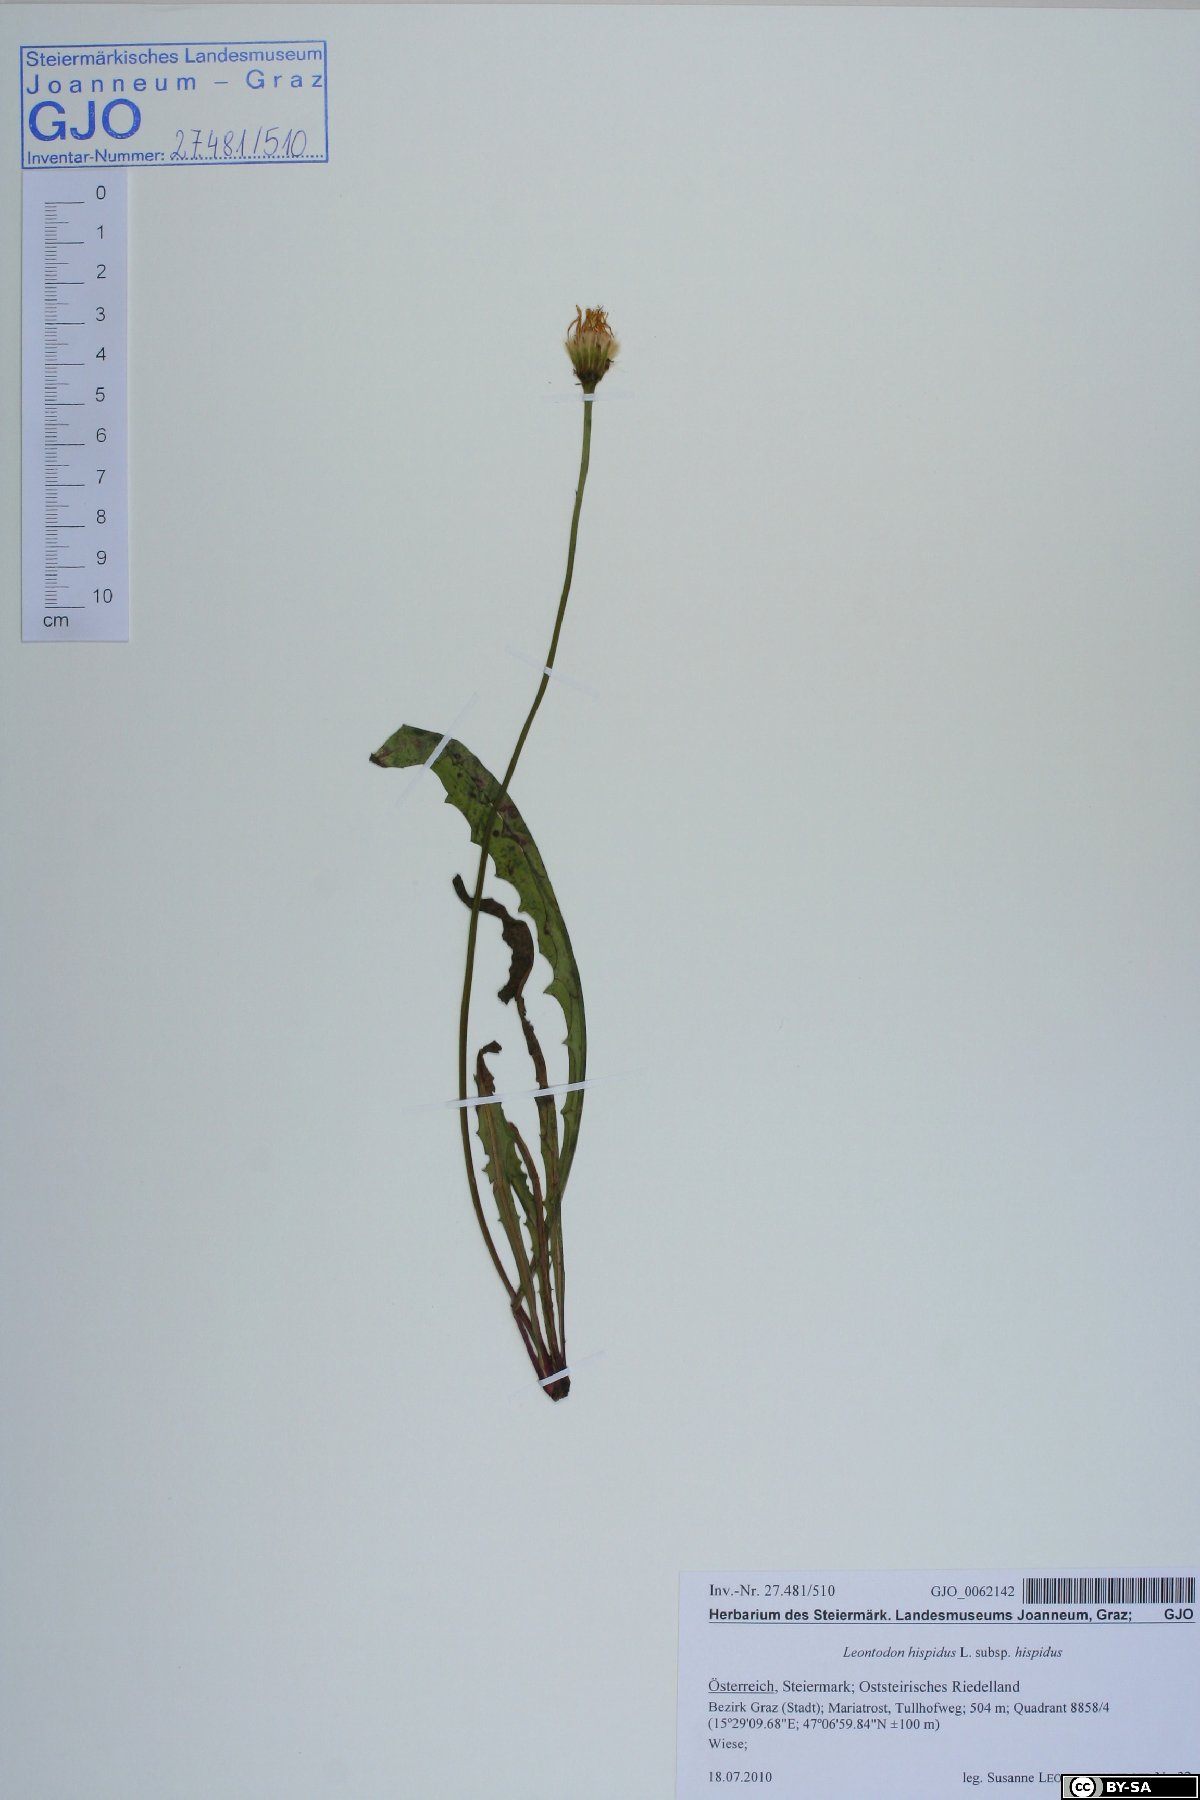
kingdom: Plantae
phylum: Tracheophyta
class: Magnoliopsida
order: Asterales
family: Asteraceae
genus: Leontodon
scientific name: Leontodon hispidus
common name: Rough hawkbit
